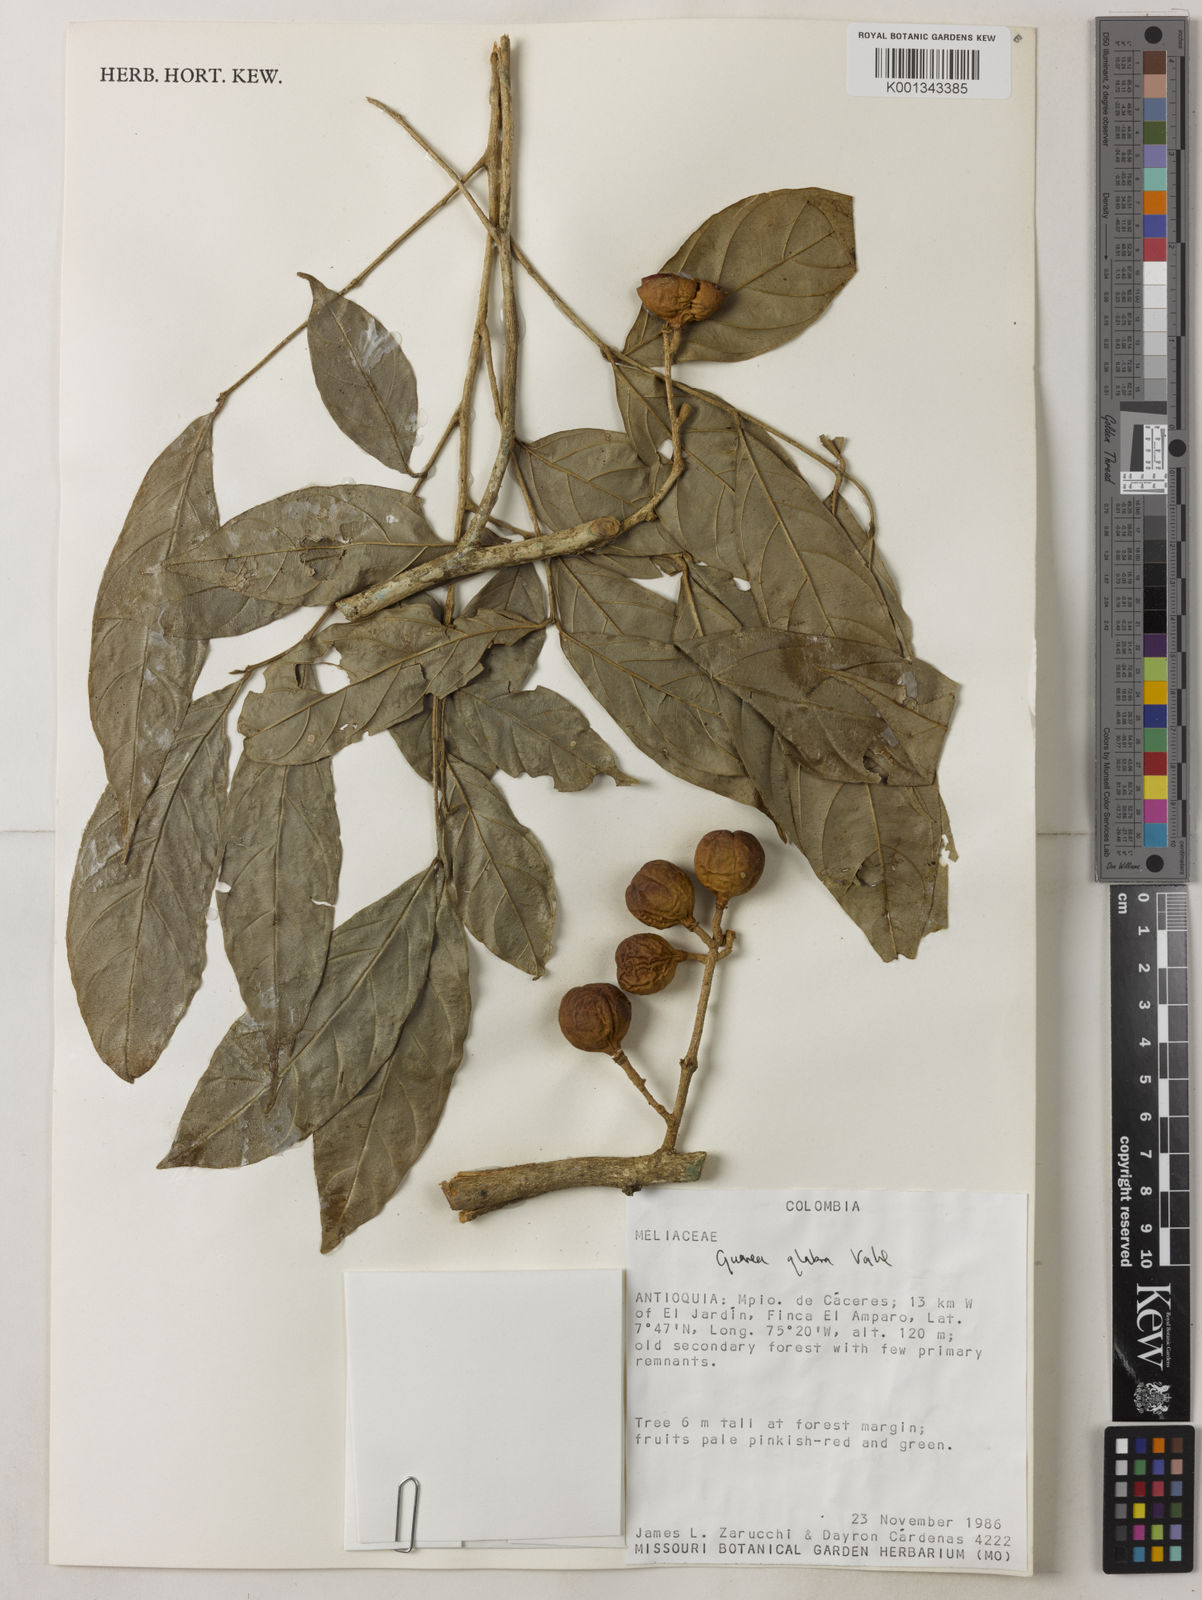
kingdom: Plantae
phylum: Tracheophyta
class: Magnoliopsida
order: Sapindales
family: Meliaceae
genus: Guarea
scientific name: Guarea glabra
